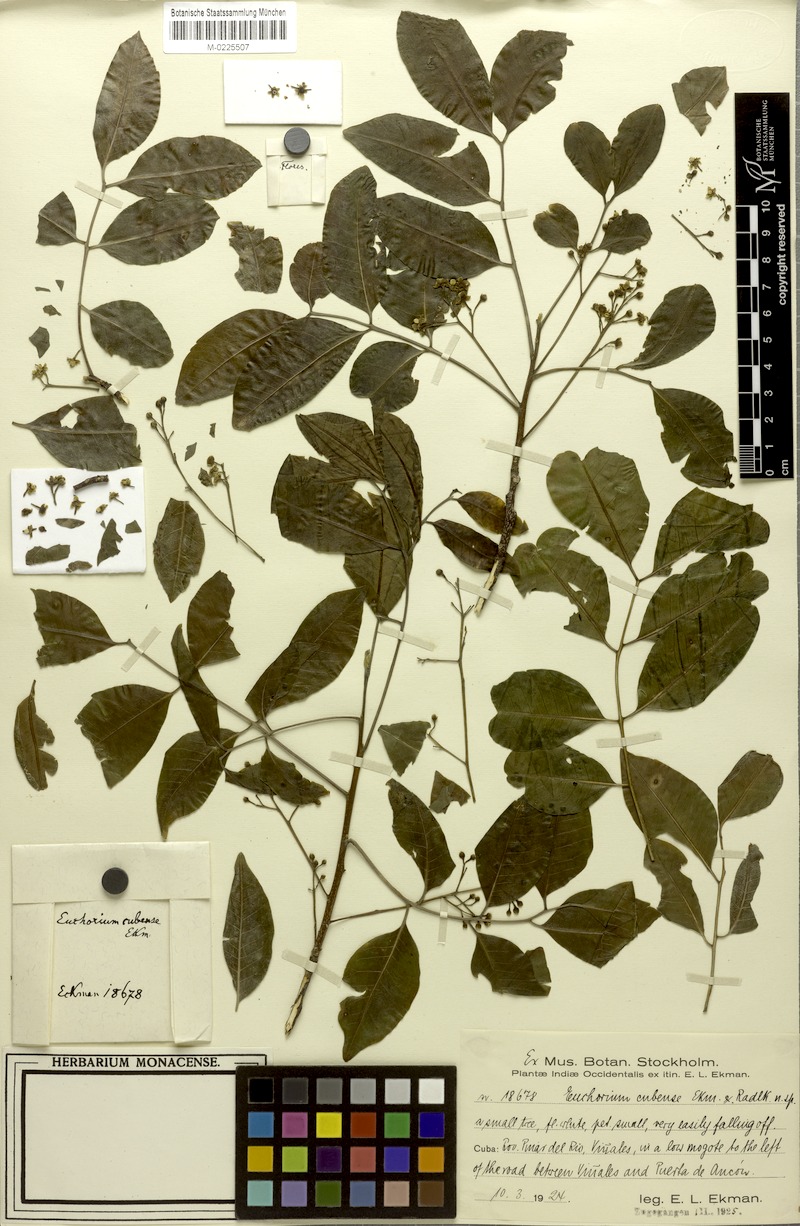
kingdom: Plantae
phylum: Tracheophyta
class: Magnoliopsida
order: Sapindales
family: Sapindaceae
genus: Euchorium
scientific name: Euchorium cubense
